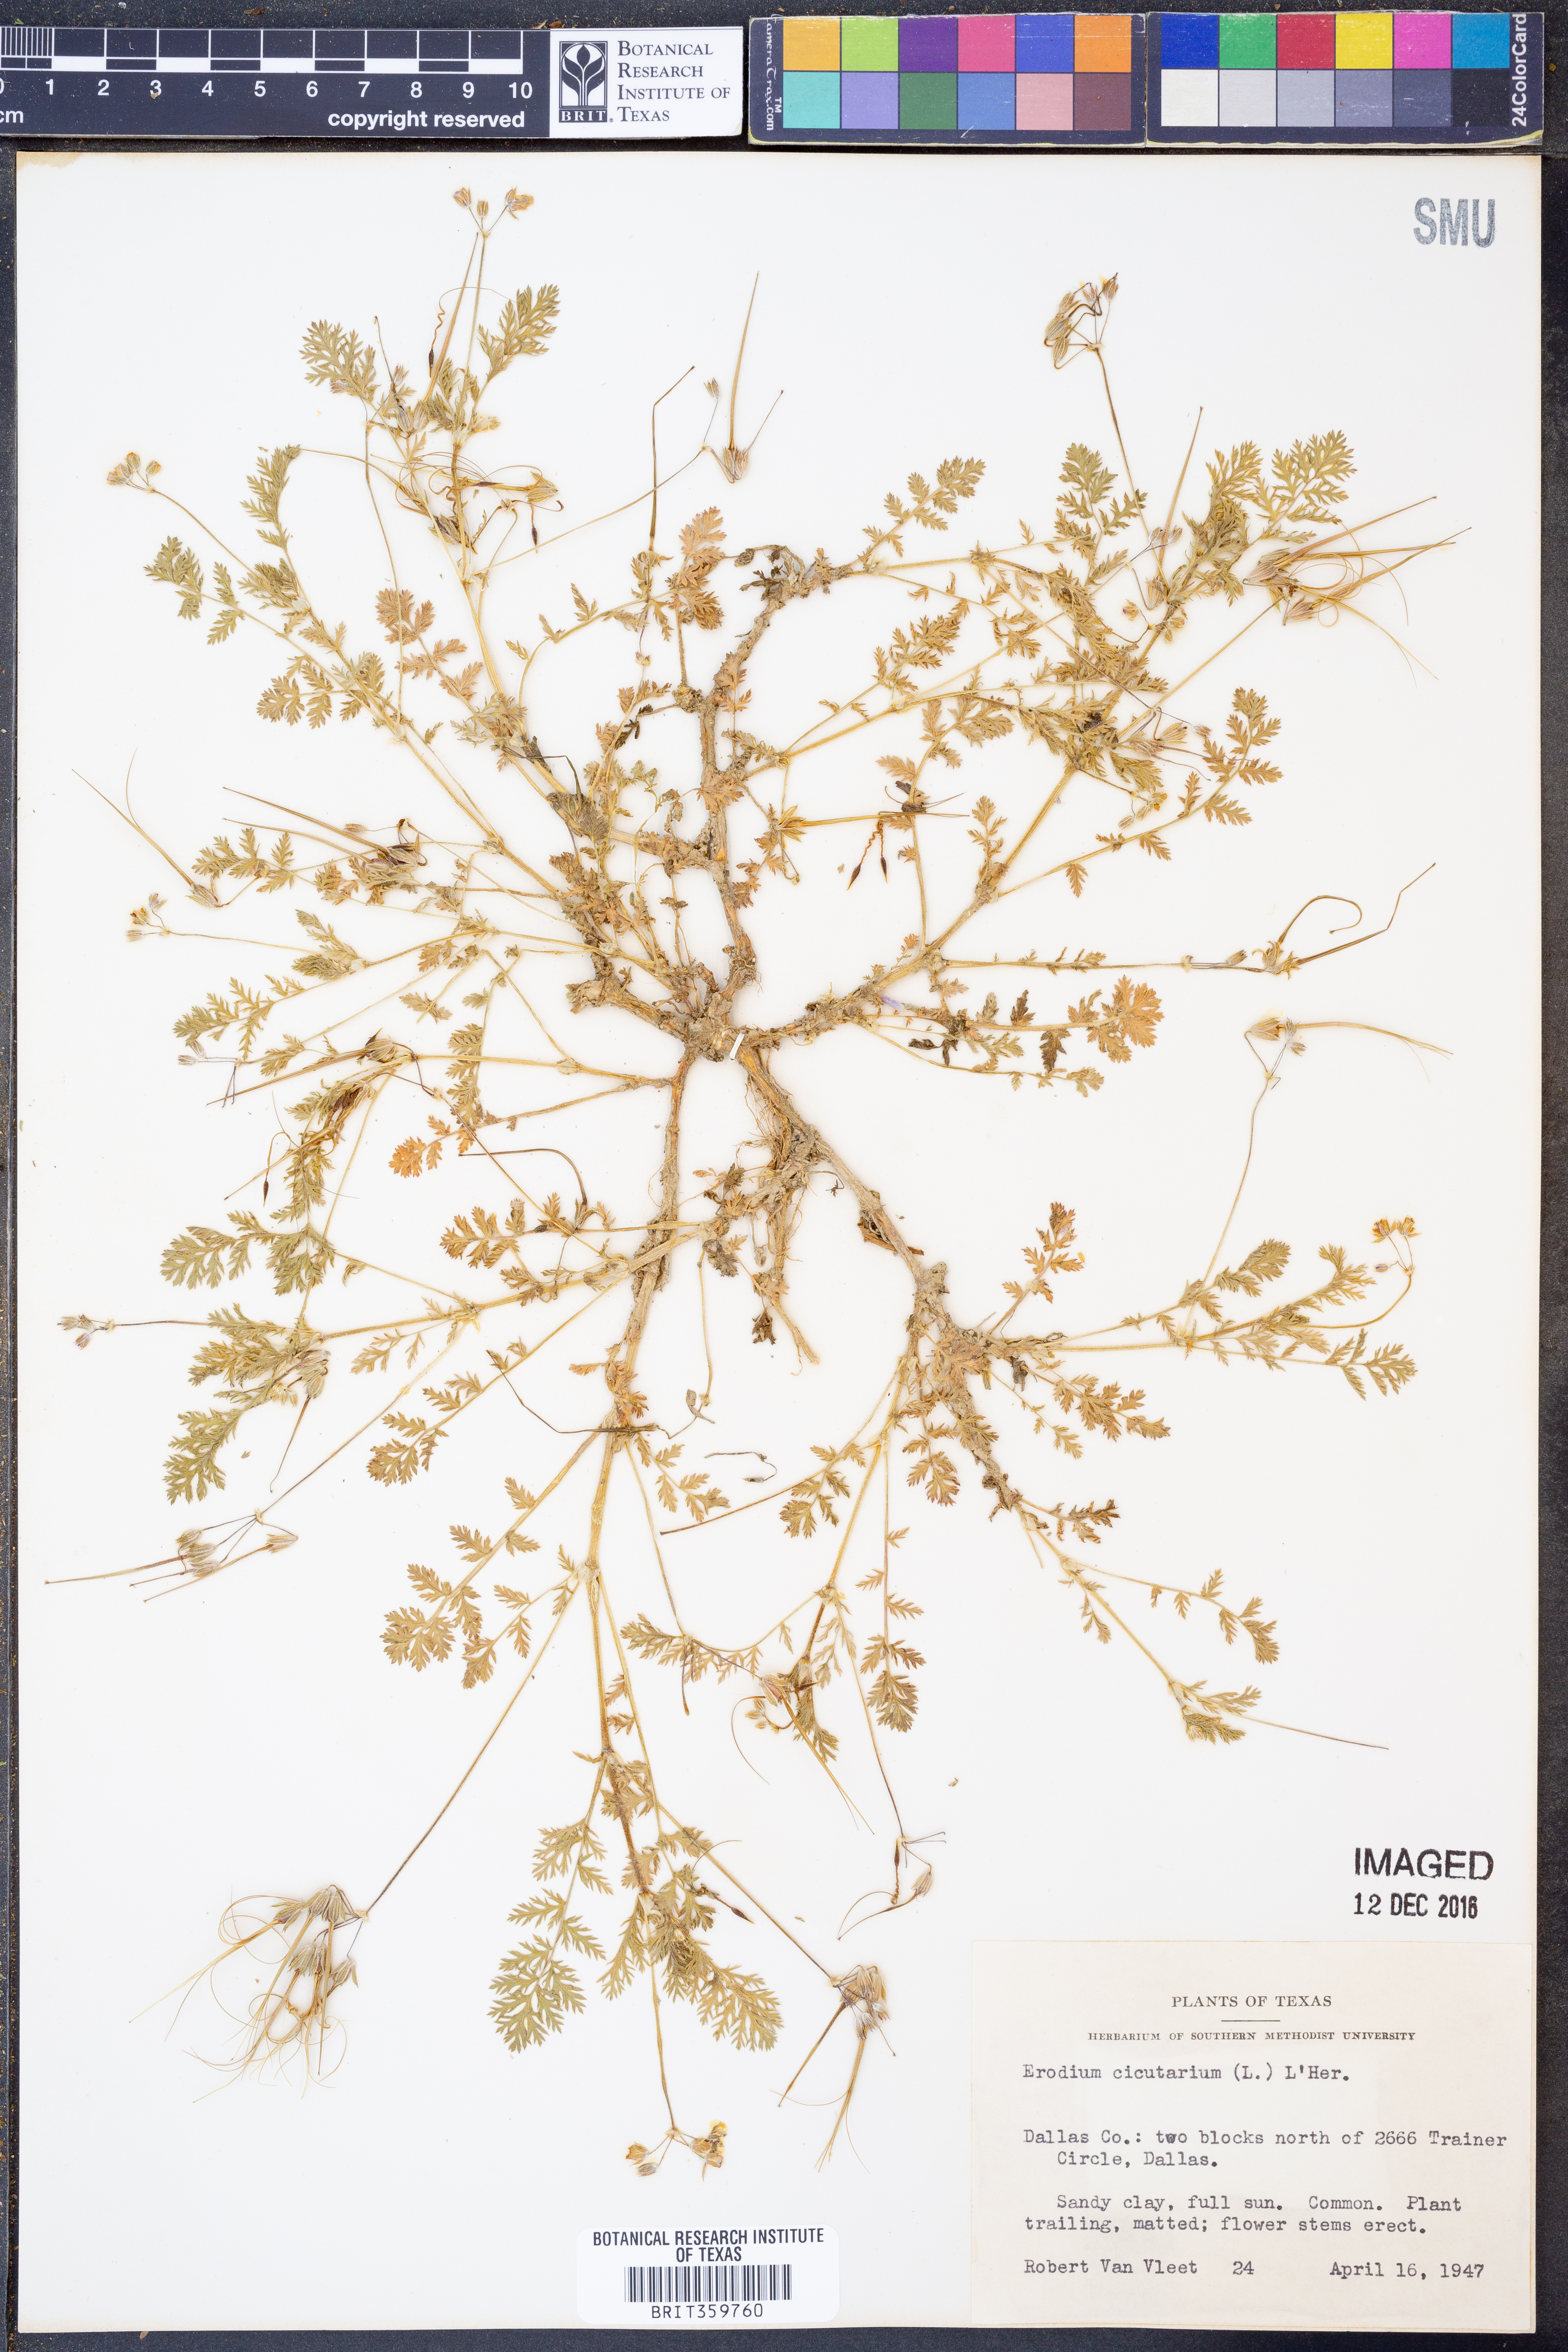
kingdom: Plantae
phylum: Tracheophyta
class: Magnoliopsida
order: Geraniales
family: Geraniaceae
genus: Erodium
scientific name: Erodium cicutarium
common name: Common stork's-bill
